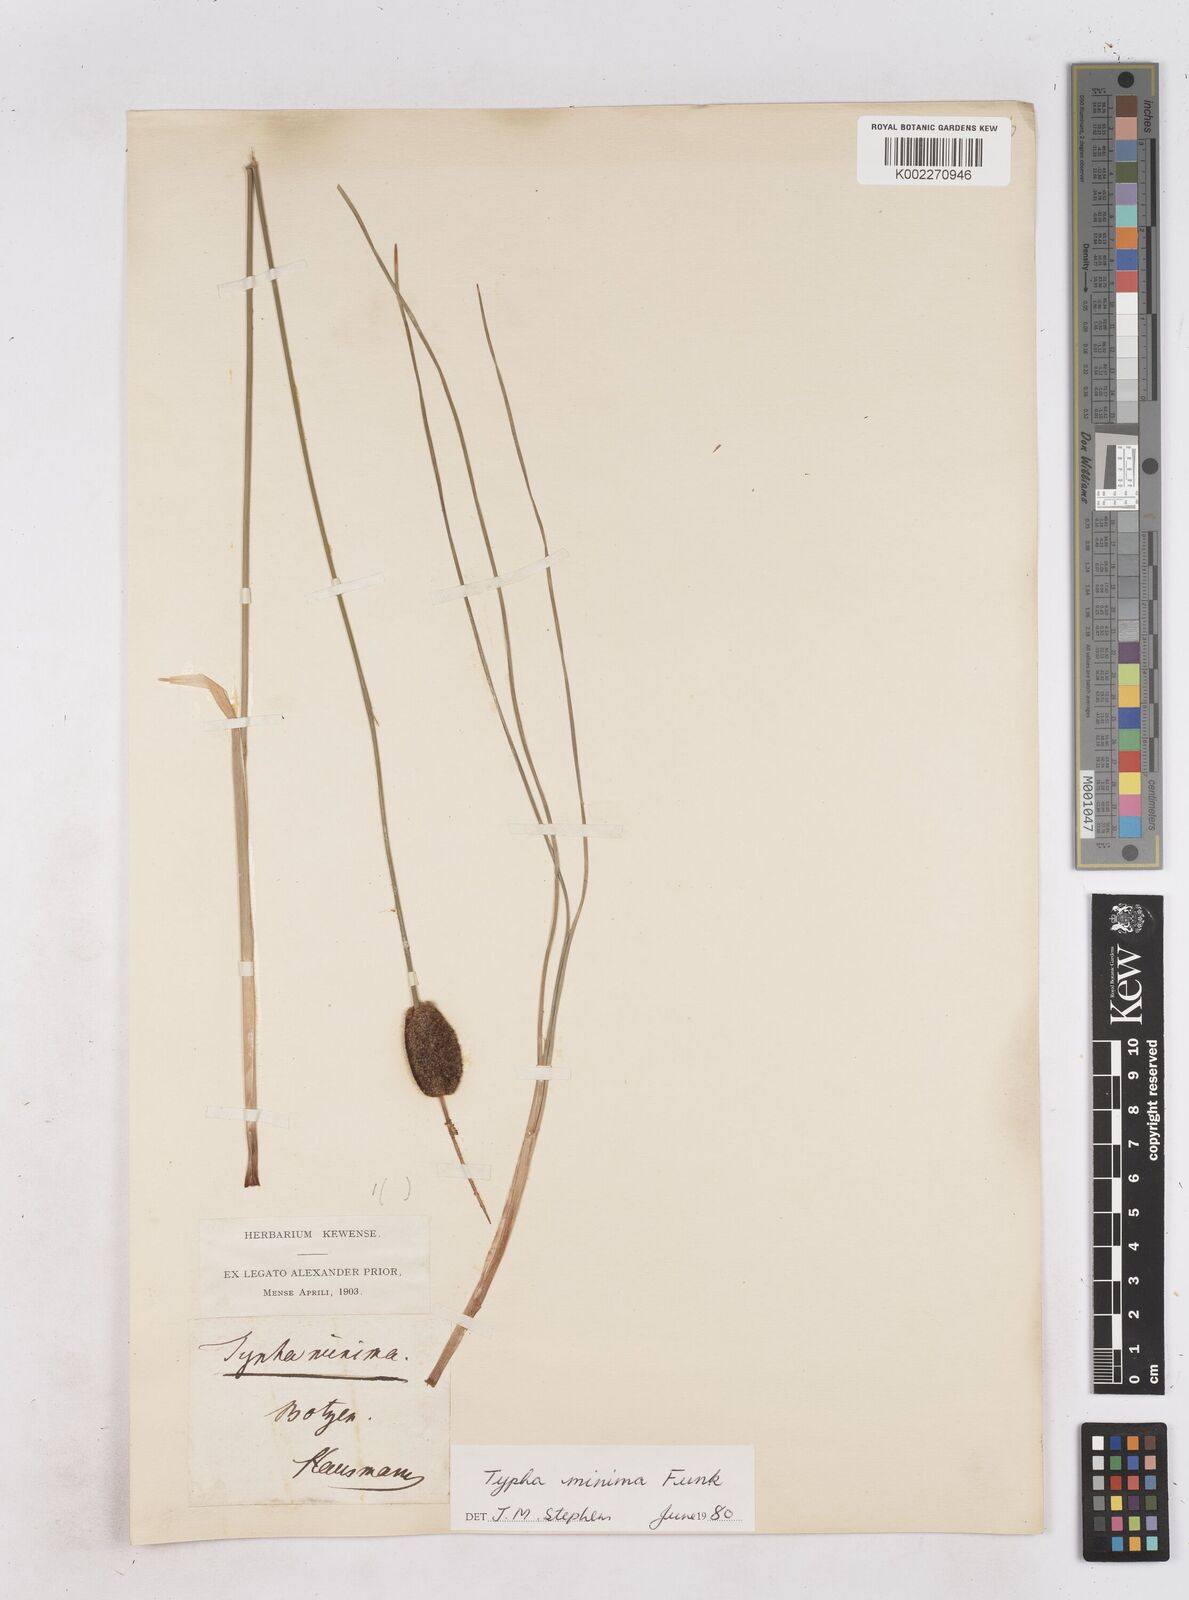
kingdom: Plantae
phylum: Tracheophyta
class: Liliopsida
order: Poales
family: Typhaceae
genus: Typha
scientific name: Typha minima
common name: Dwarf bulrush
